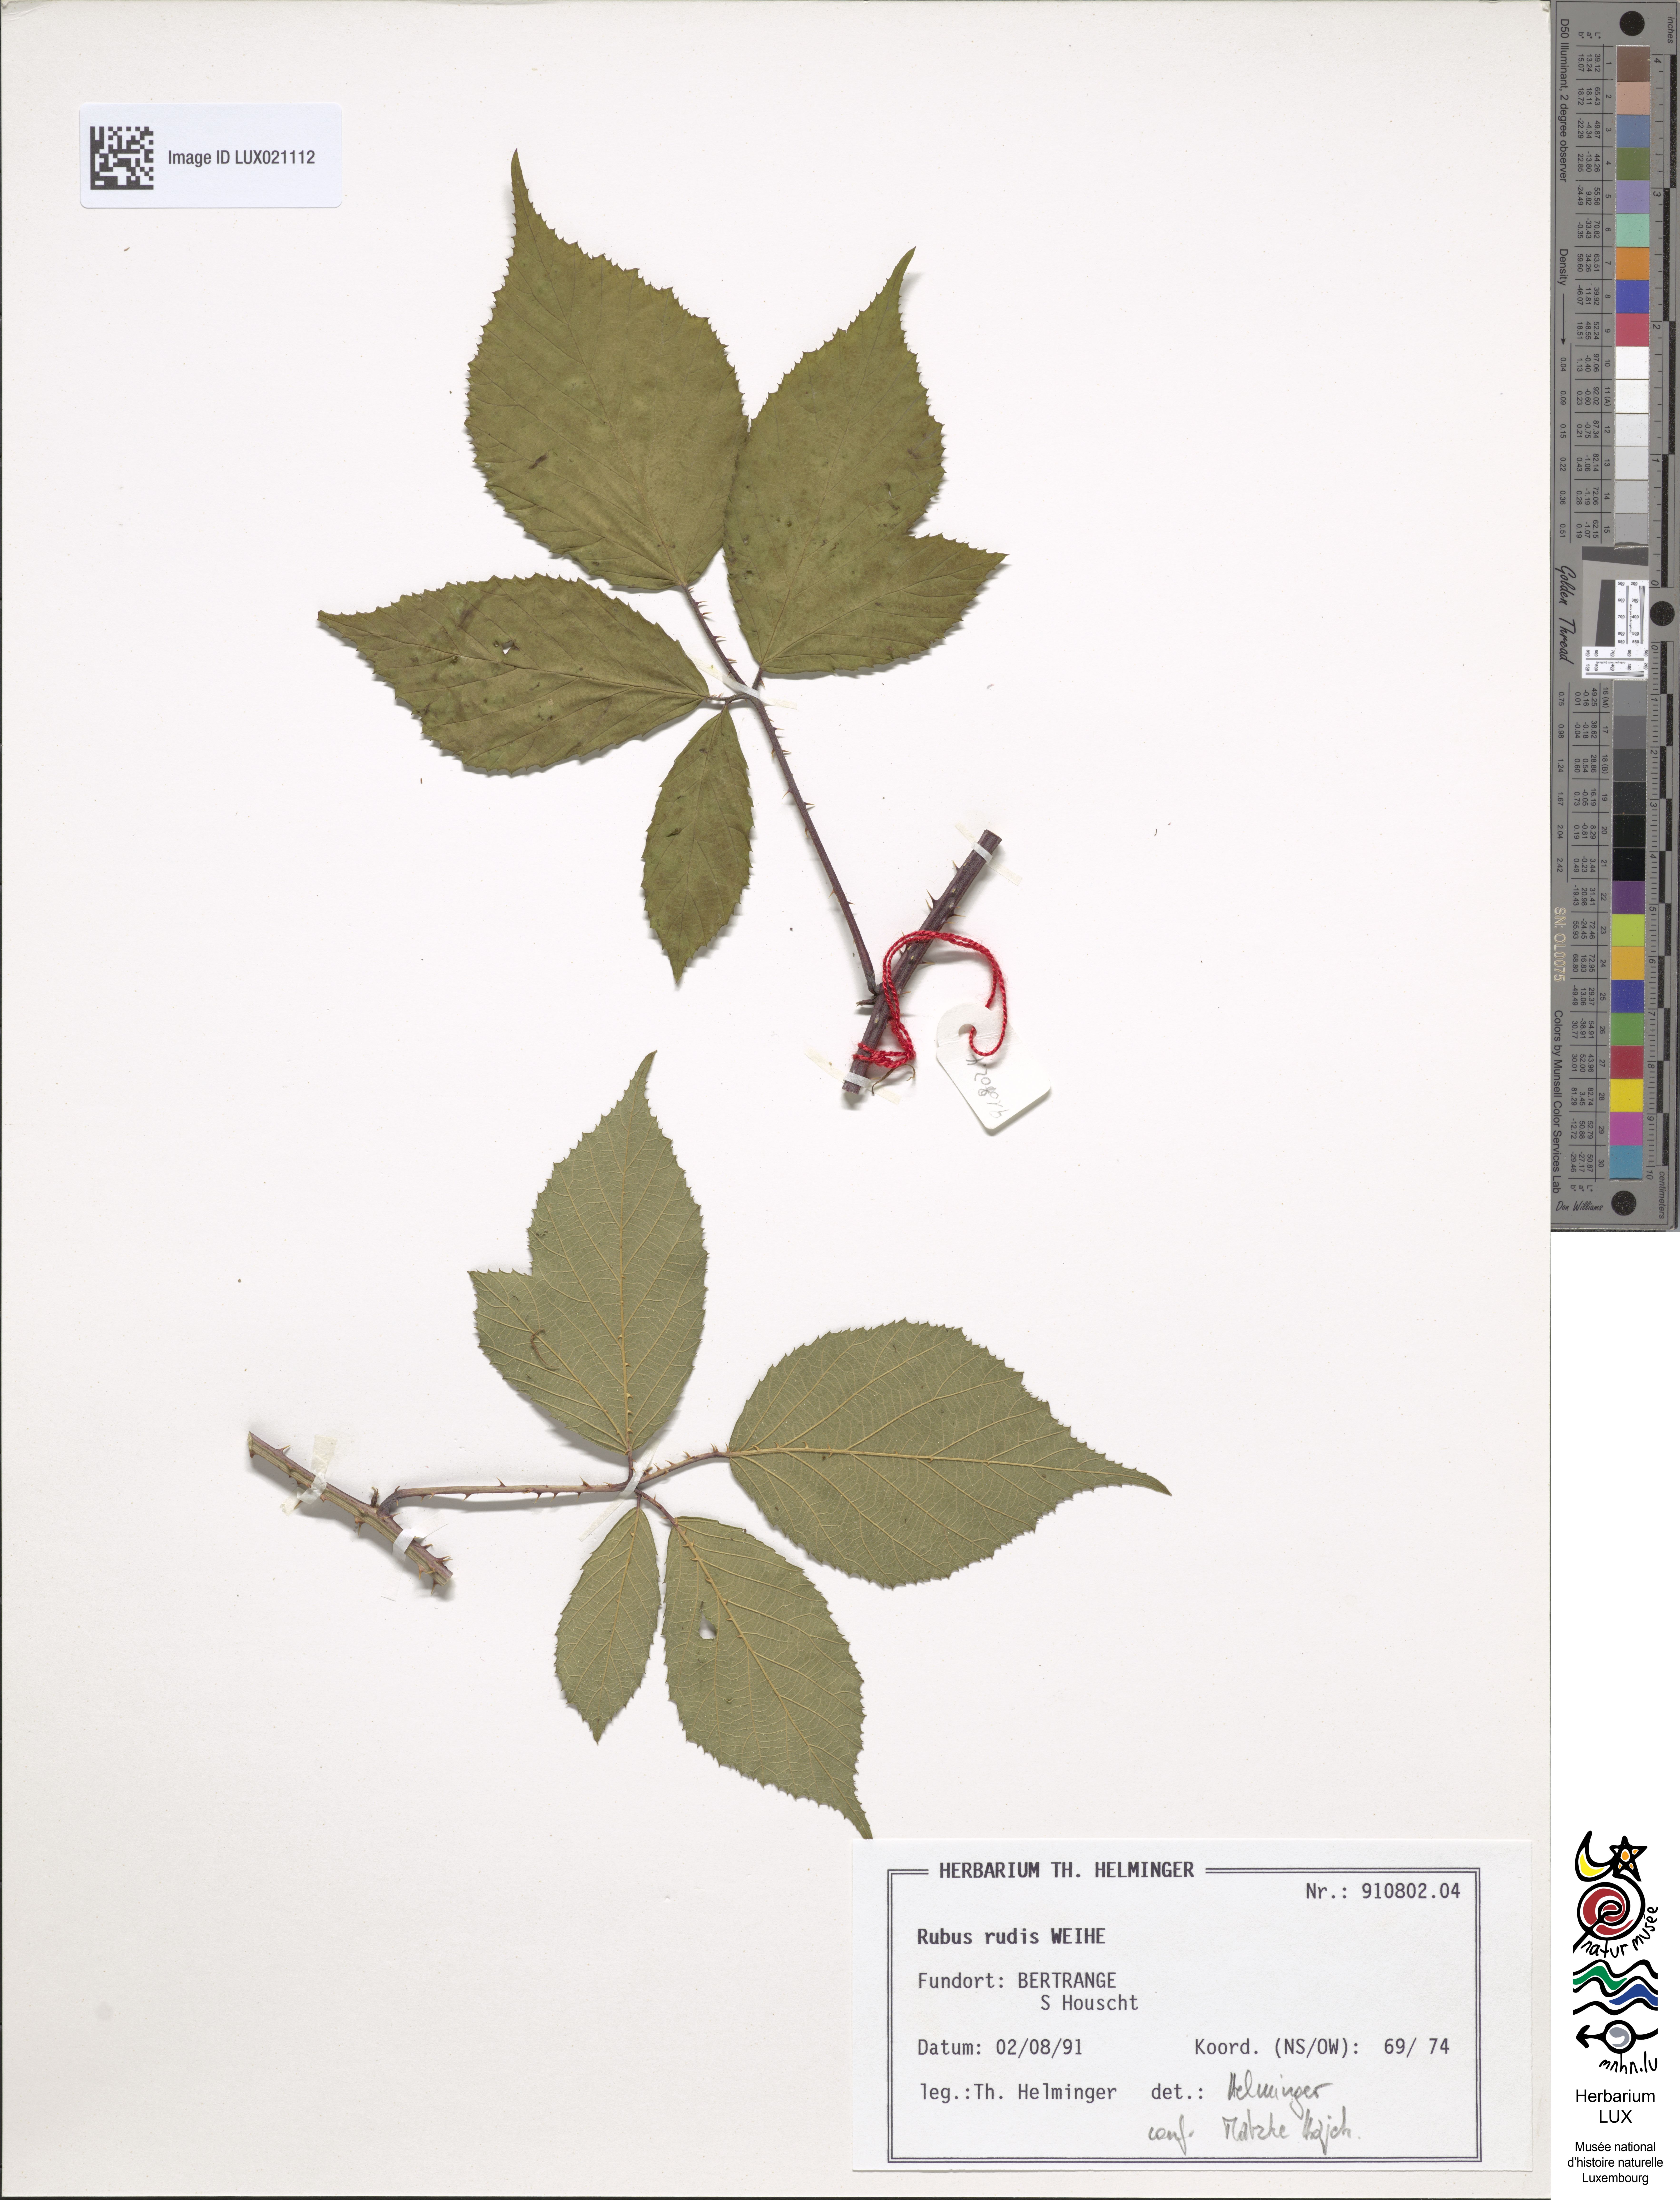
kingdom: Plantae
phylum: Tracheophyta
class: Magnoliopsida
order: Rosales
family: Rosaceae
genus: Rubus
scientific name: Rubus rudis
